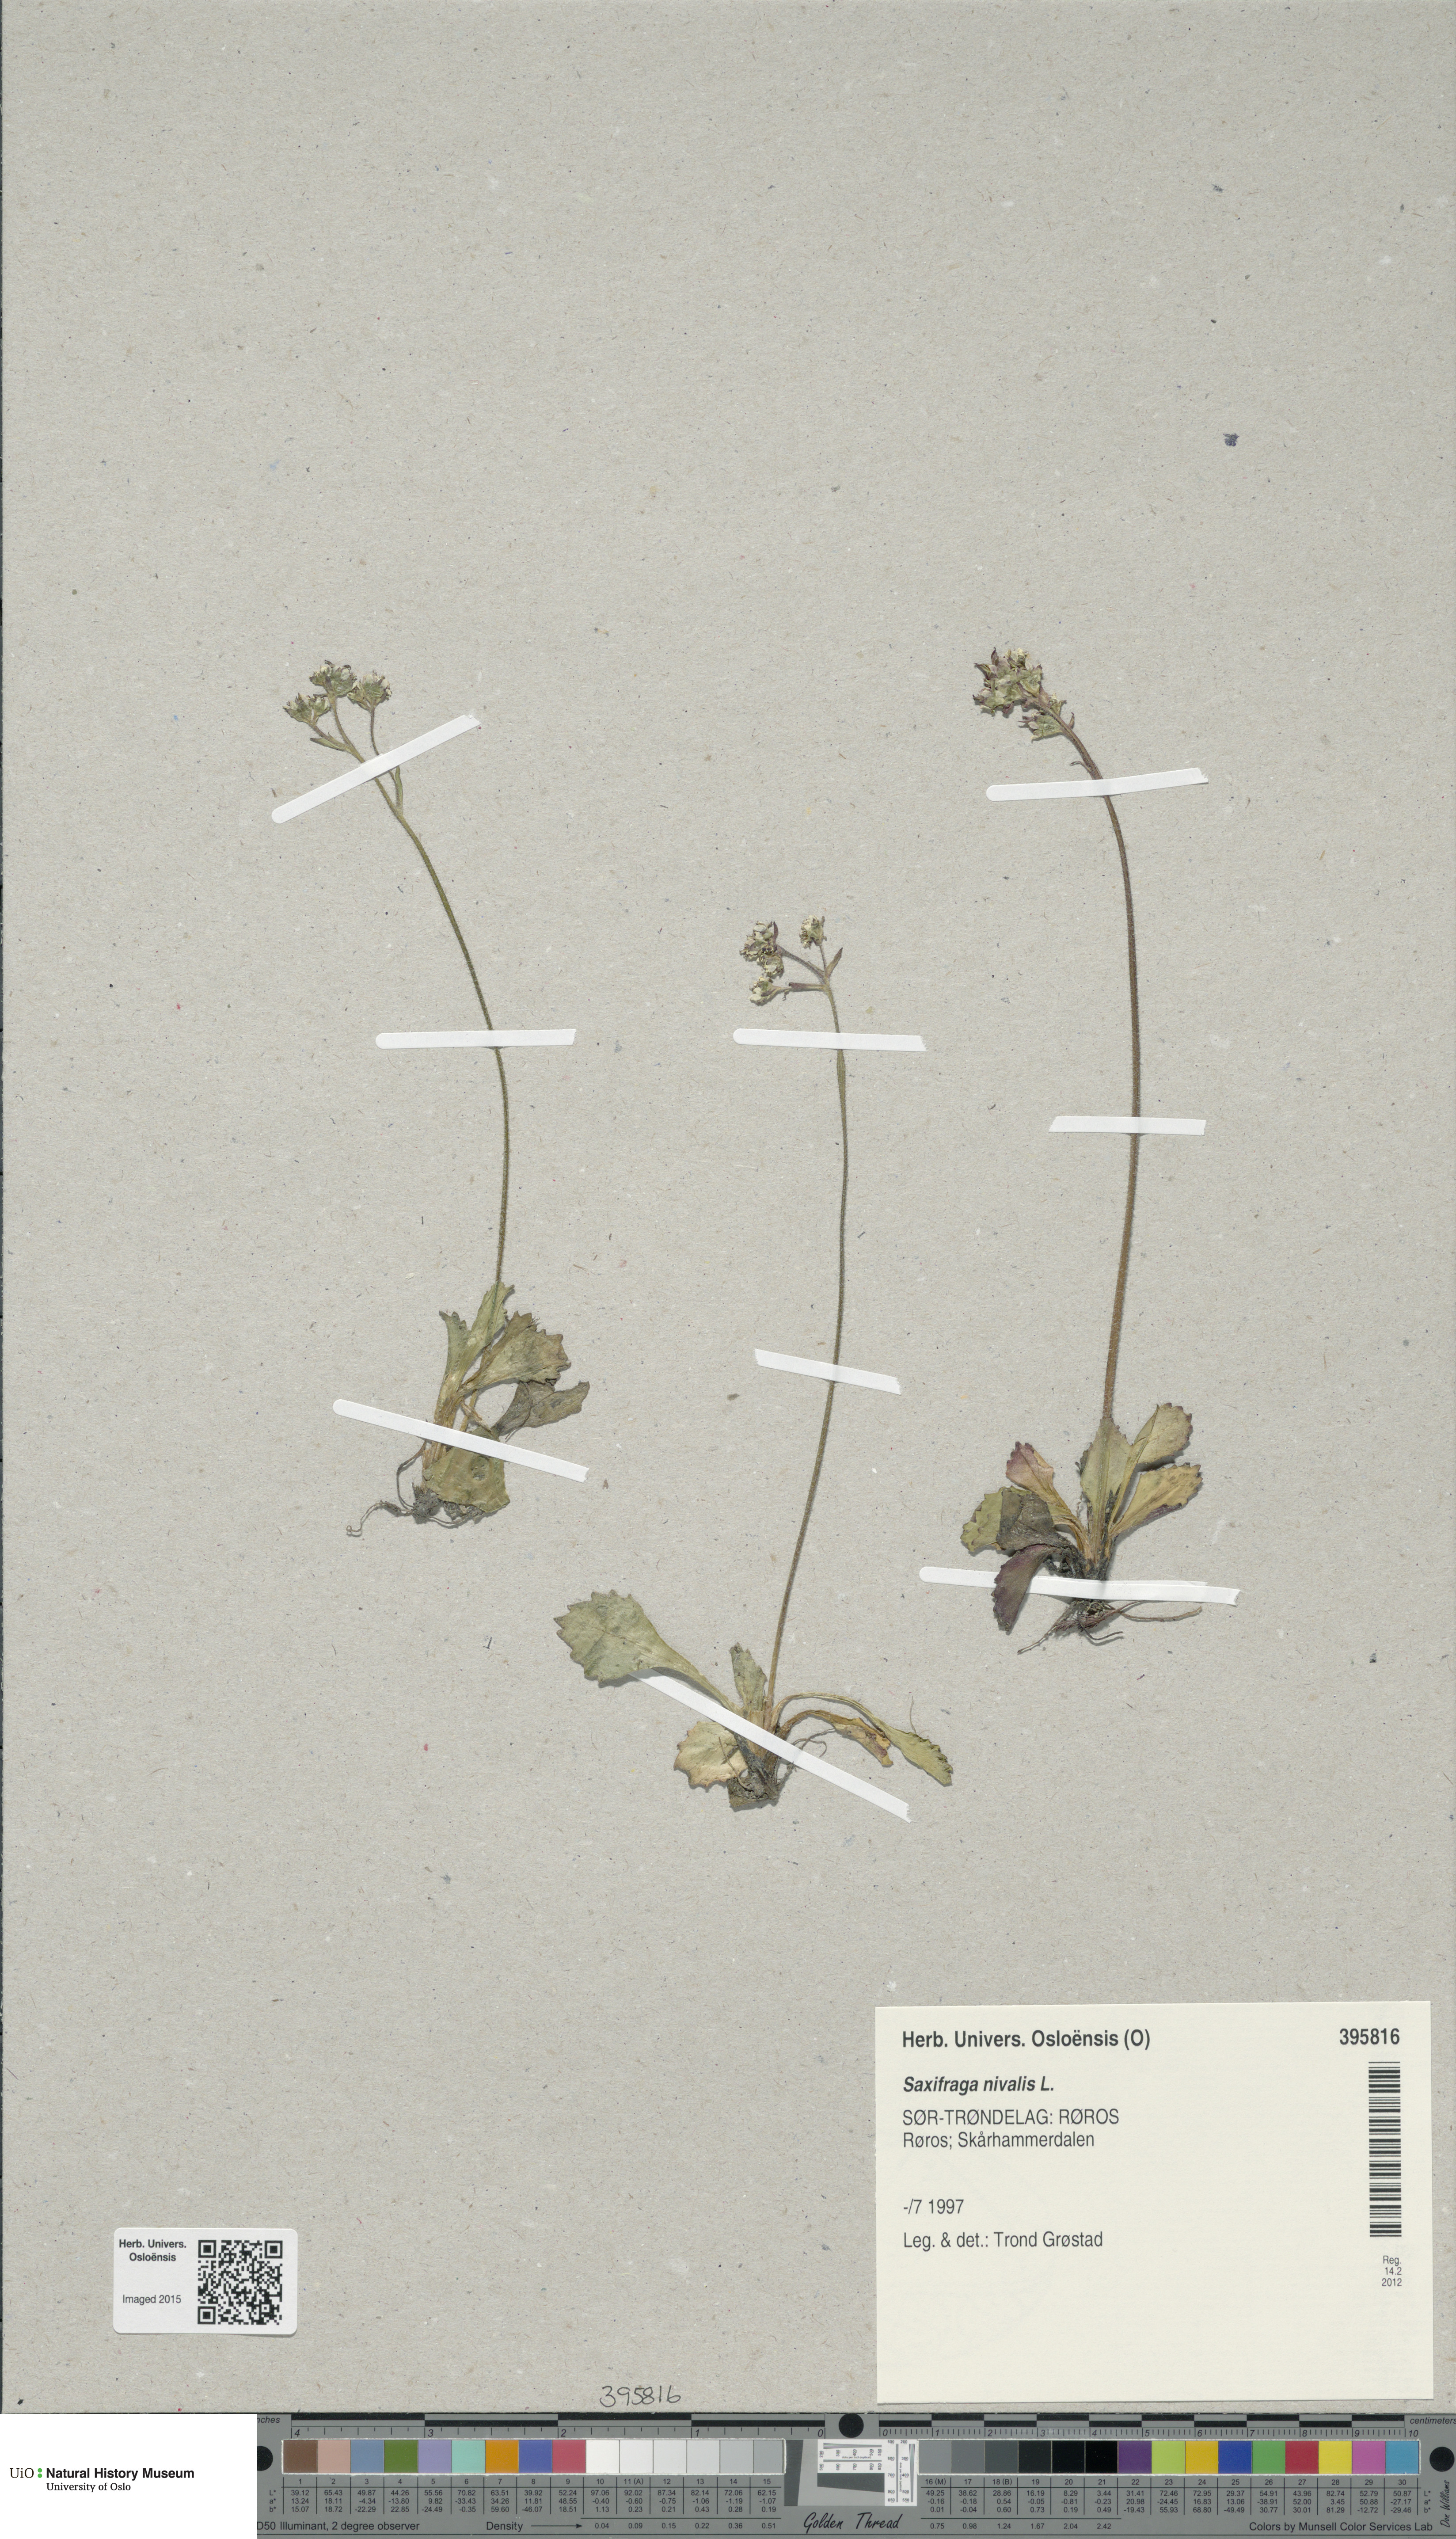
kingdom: Plantae
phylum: Tracheophyta
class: Magnoliopsida
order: Saxifragales
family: Saxifragaceae
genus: Micranthes
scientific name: Micranthes nivalis
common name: Alpine saxifrage
